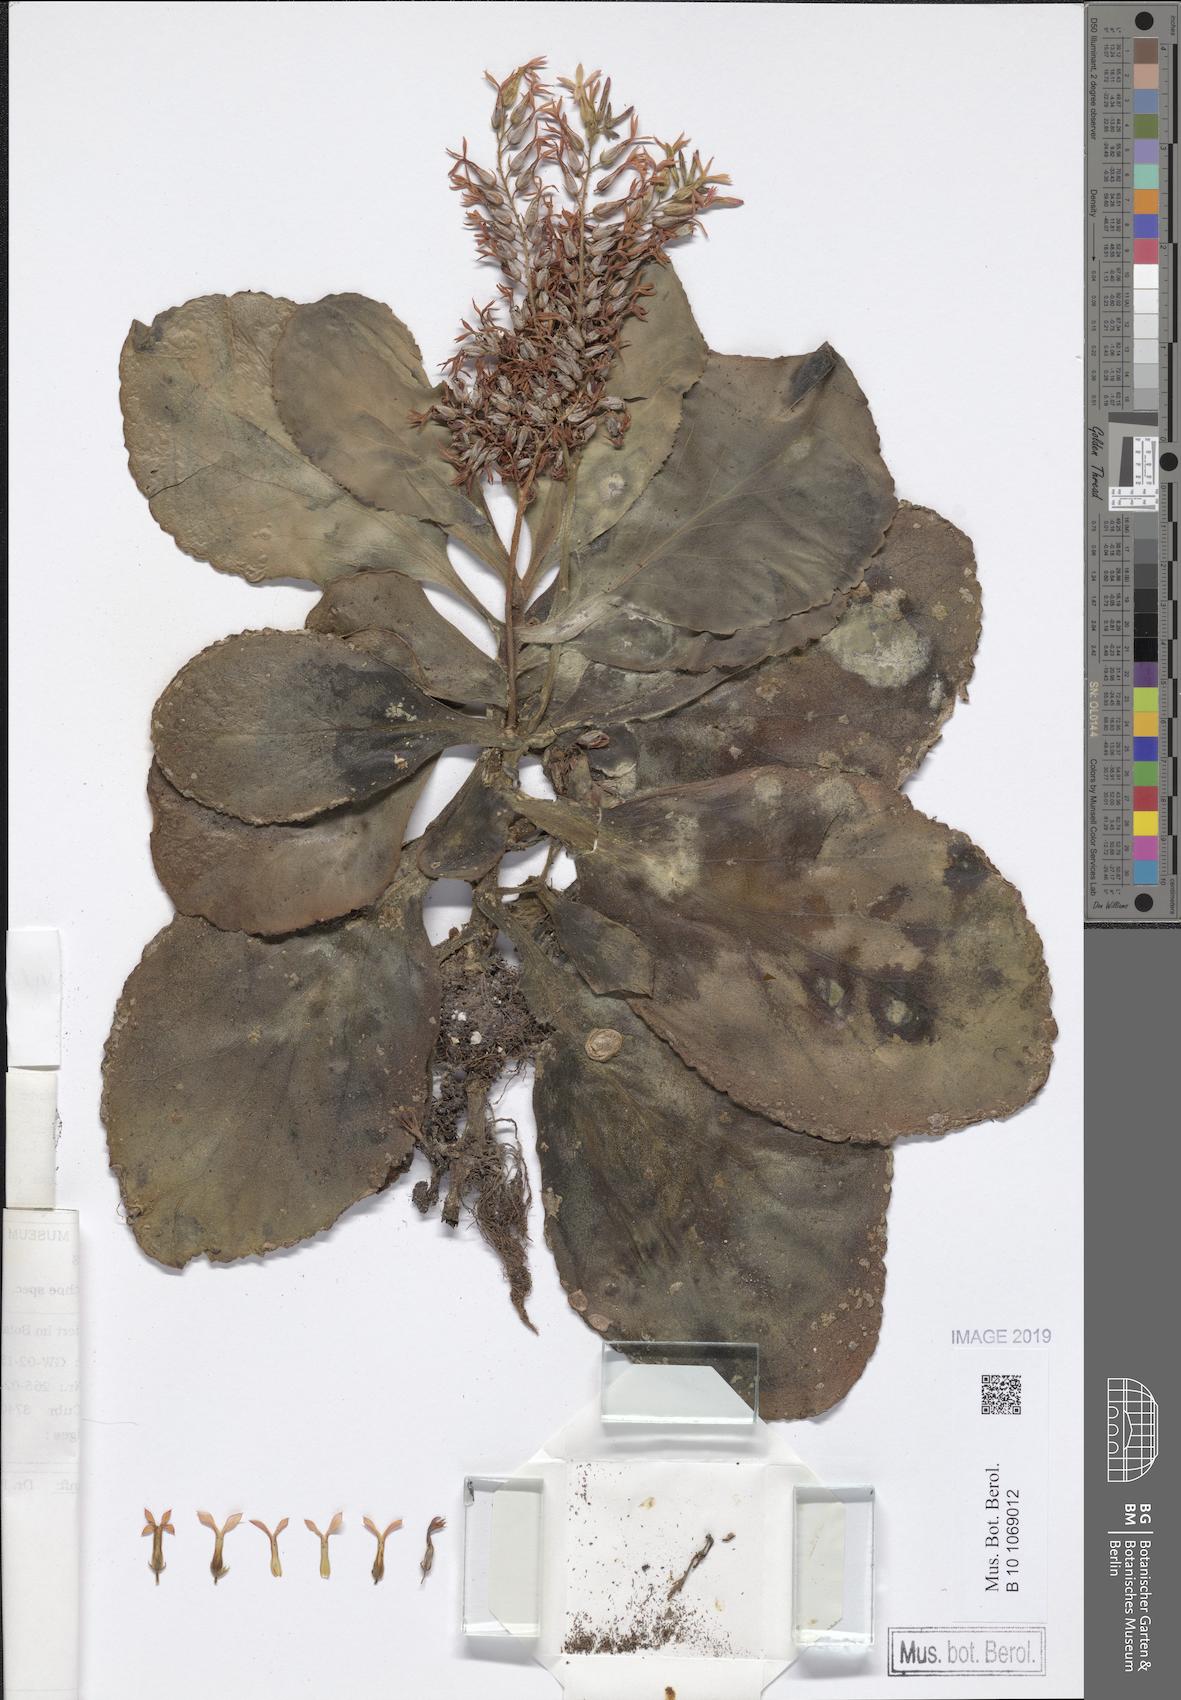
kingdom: Plantae
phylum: Tracheophyta
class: Magnoliopsida
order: Saxifragales
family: Crassulaceae
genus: Kalanchoe
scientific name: Kalanchoe
